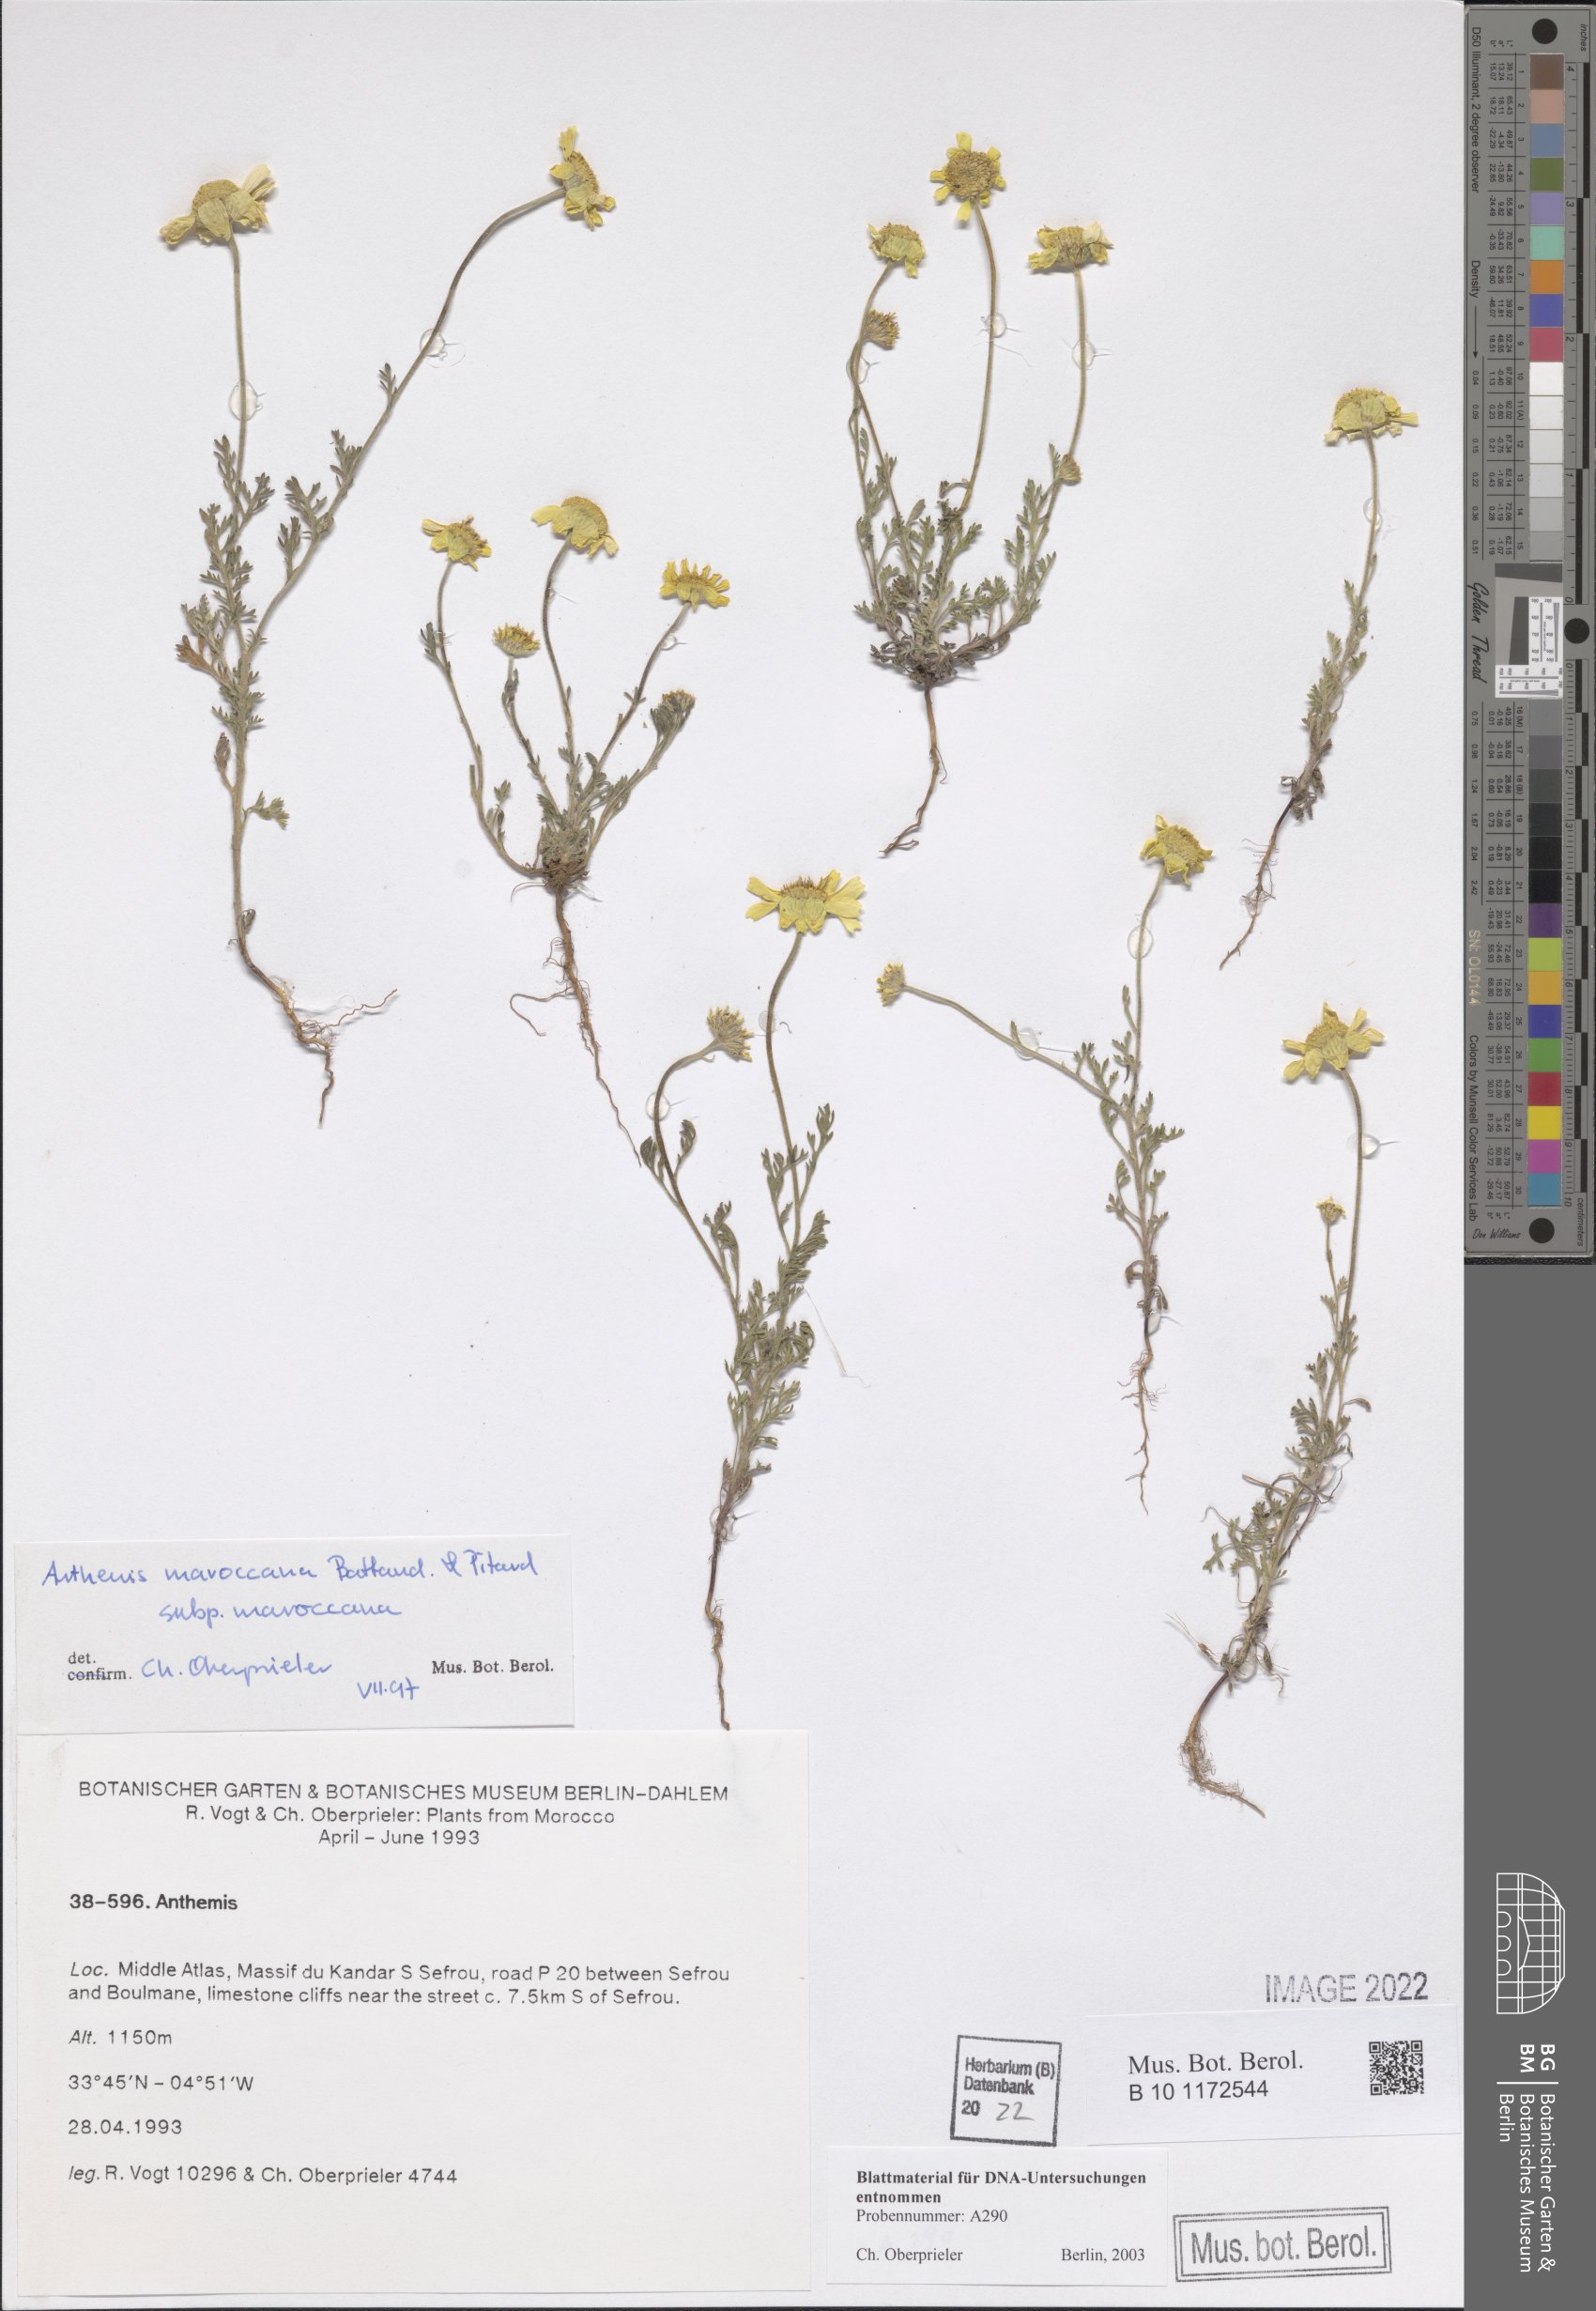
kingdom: Plantae
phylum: Tracheophyta
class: Magnoliopsida
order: Asterales
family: Asteraceae
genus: Anthemis
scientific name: Anthemis marocana
